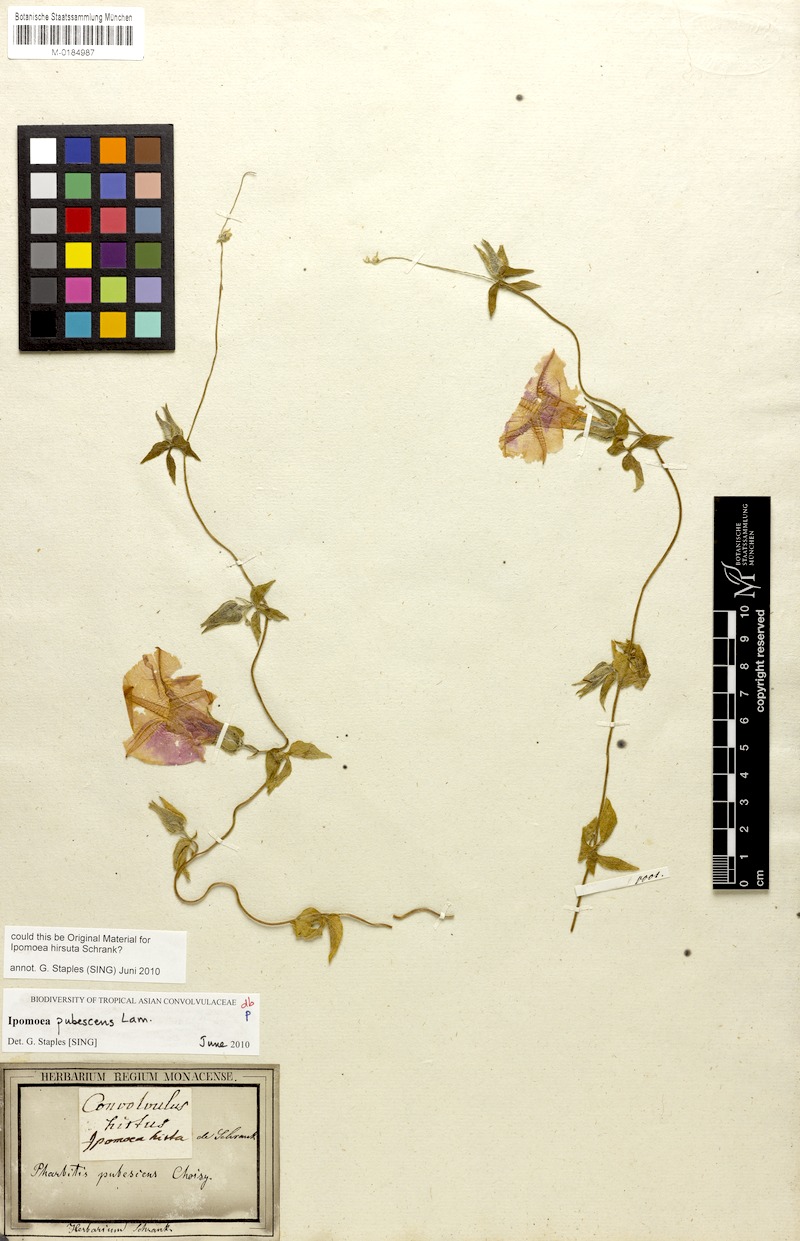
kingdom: Plantae
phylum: Tracheophyta
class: Magnoliopsida
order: Solanales
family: Convolvulaceae
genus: Ipomoea
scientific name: Ipomoea pubescens
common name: Silky morning-glory
